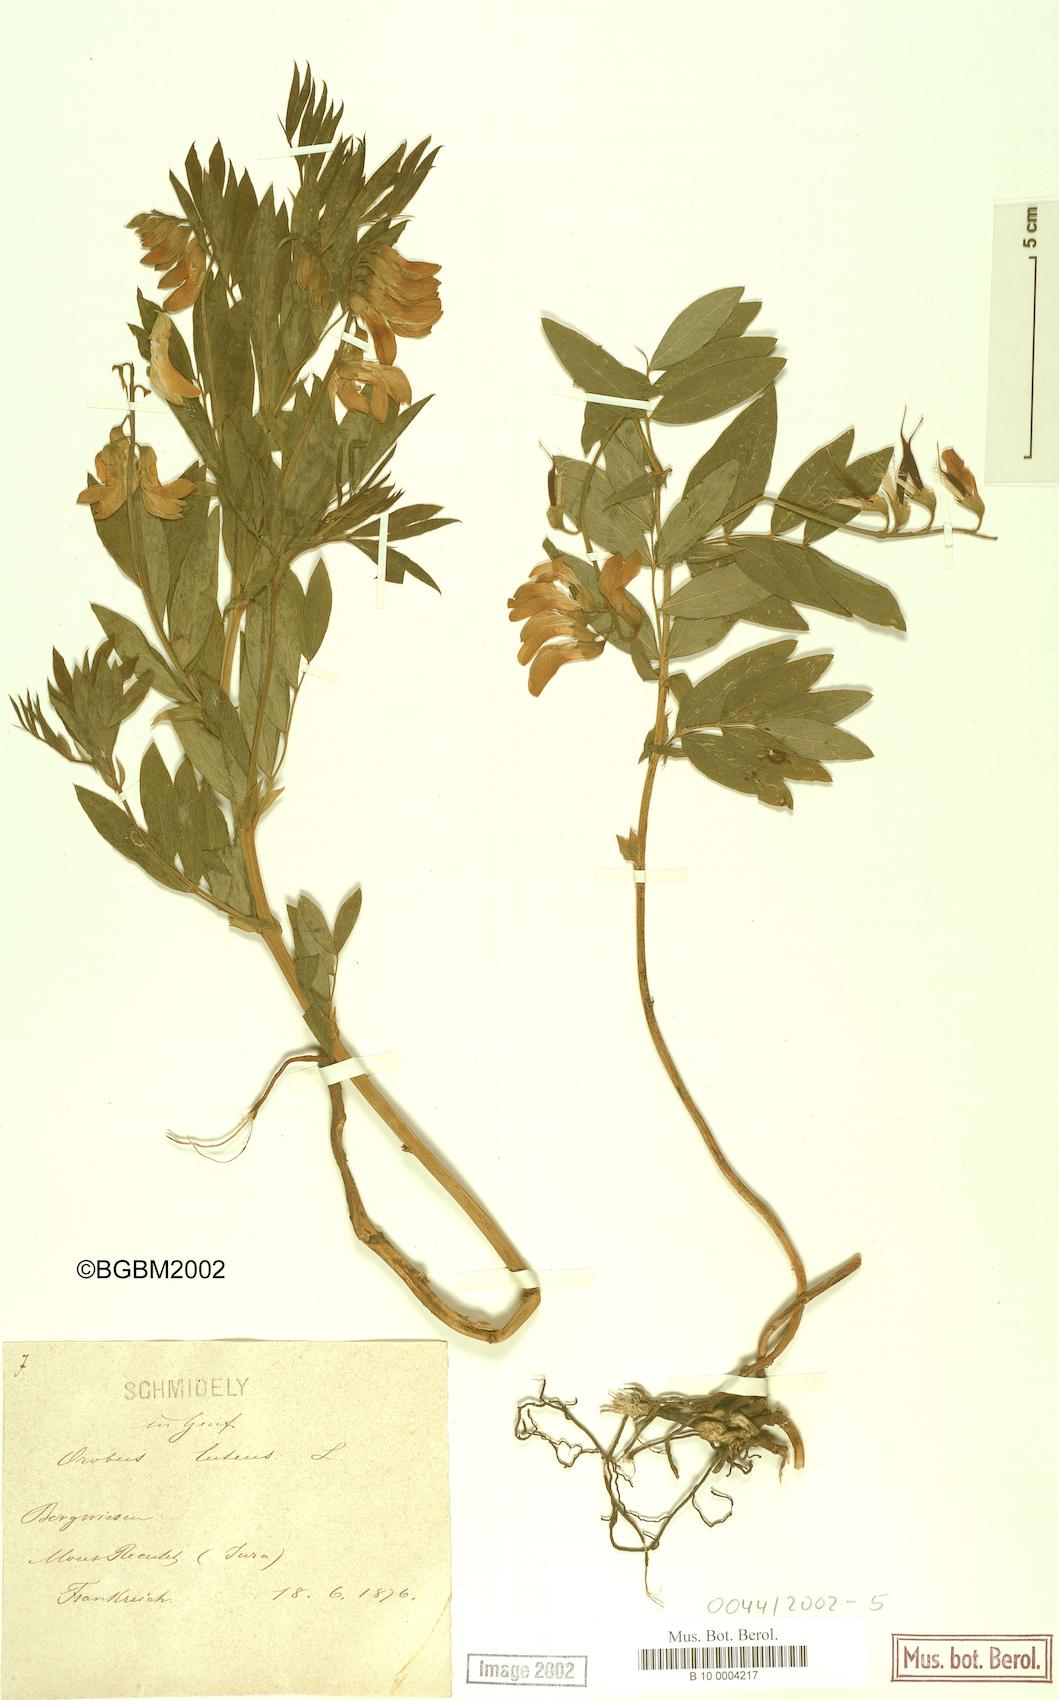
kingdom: Plantae
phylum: Tracheophyta
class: Magnoliopsida
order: Fabales
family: Fabaceae
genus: Lathyrus
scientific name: Lathyrus gmelinii
